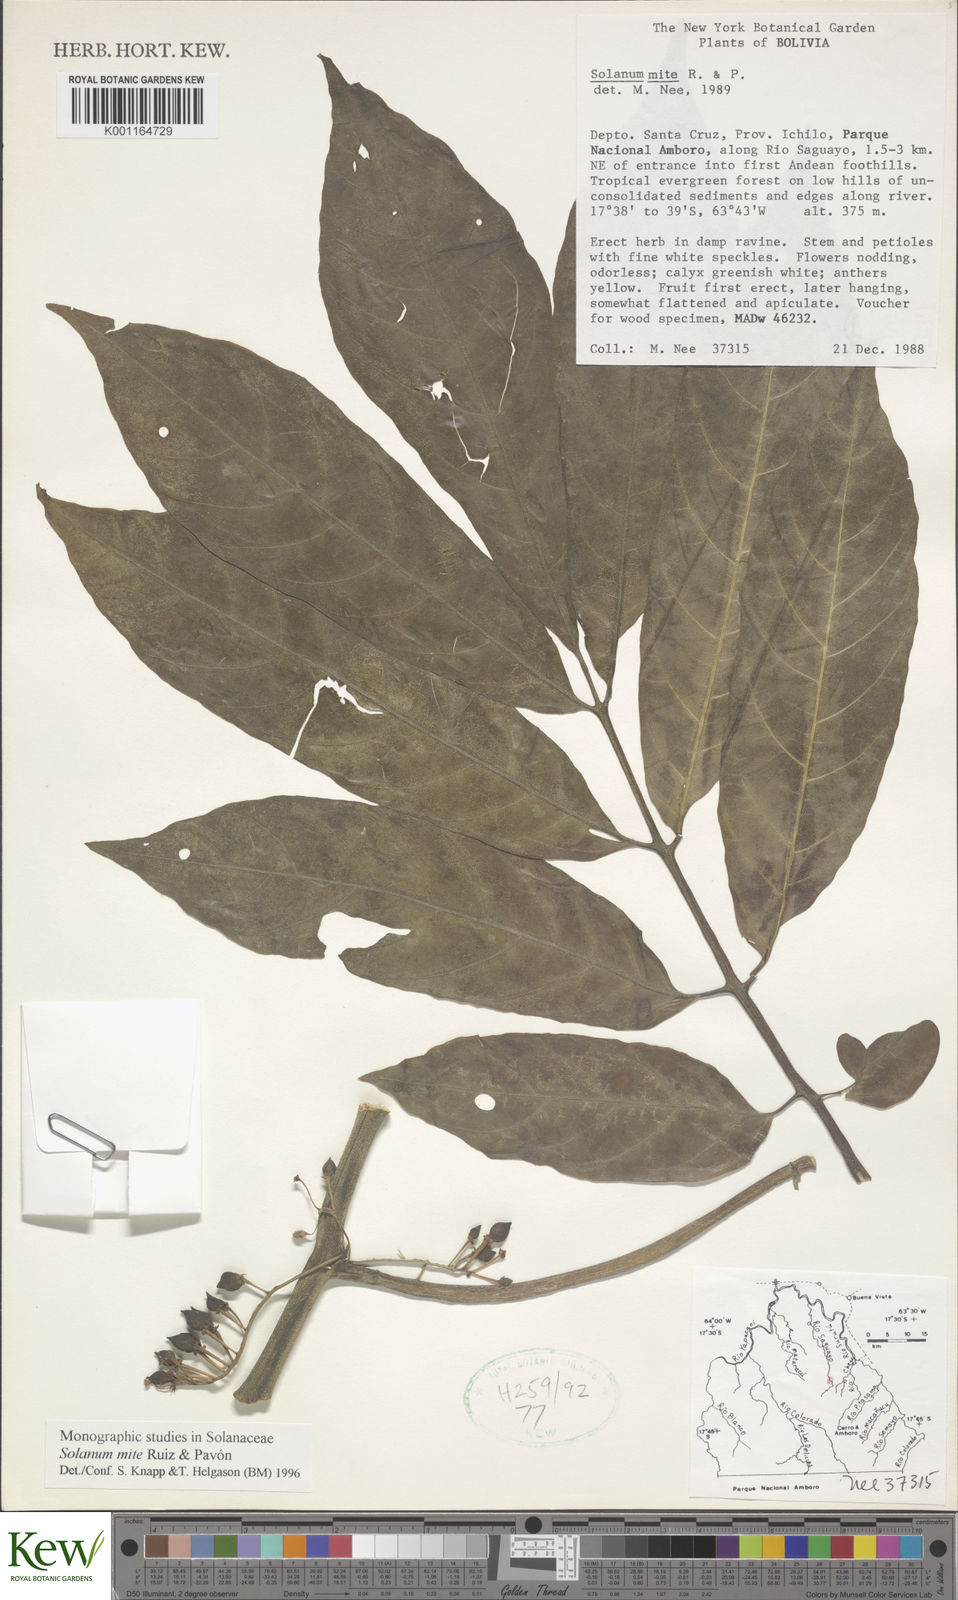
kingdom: Plantae
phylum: Tracheophyta
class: Magnoliopsida
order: Solanales
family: Solanaceae
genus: Solanum
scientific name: Solanum mite
